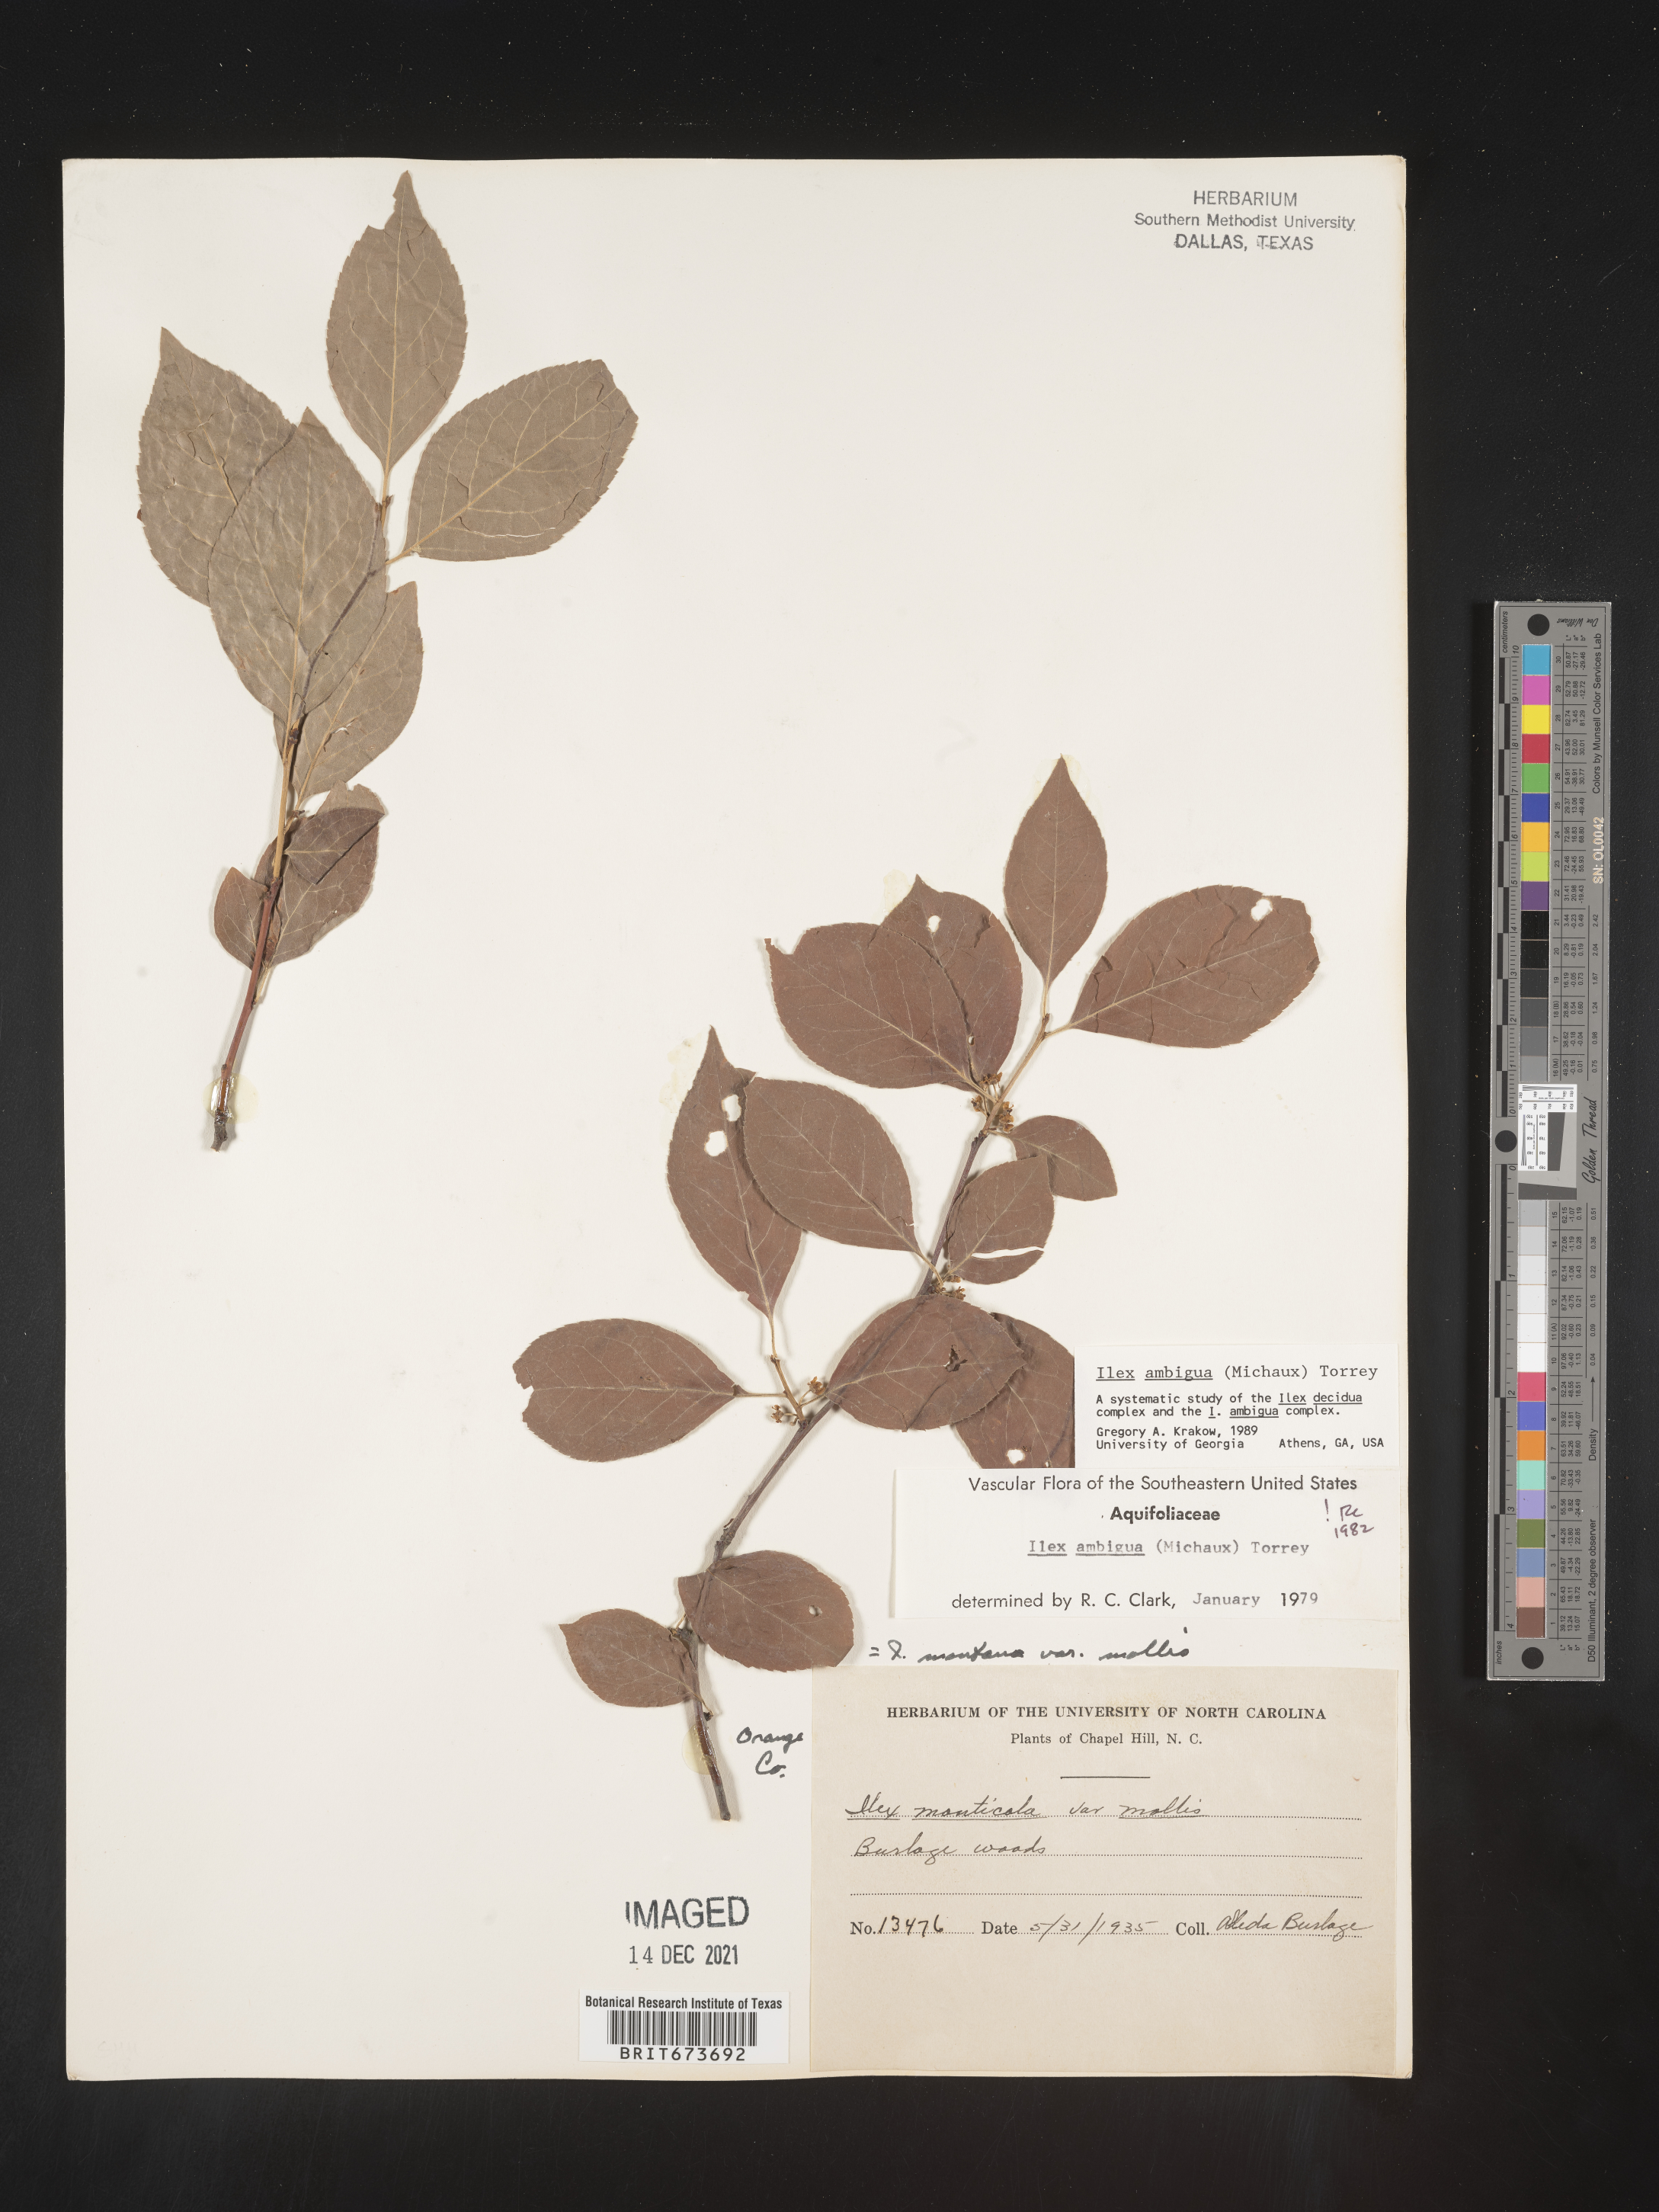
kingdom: Plantae
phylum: Tracheophyta
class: Magnoliopsida
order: Aquifoliales
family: Aquifoliaceae
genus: Ilex
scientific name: Ilex ambigua
